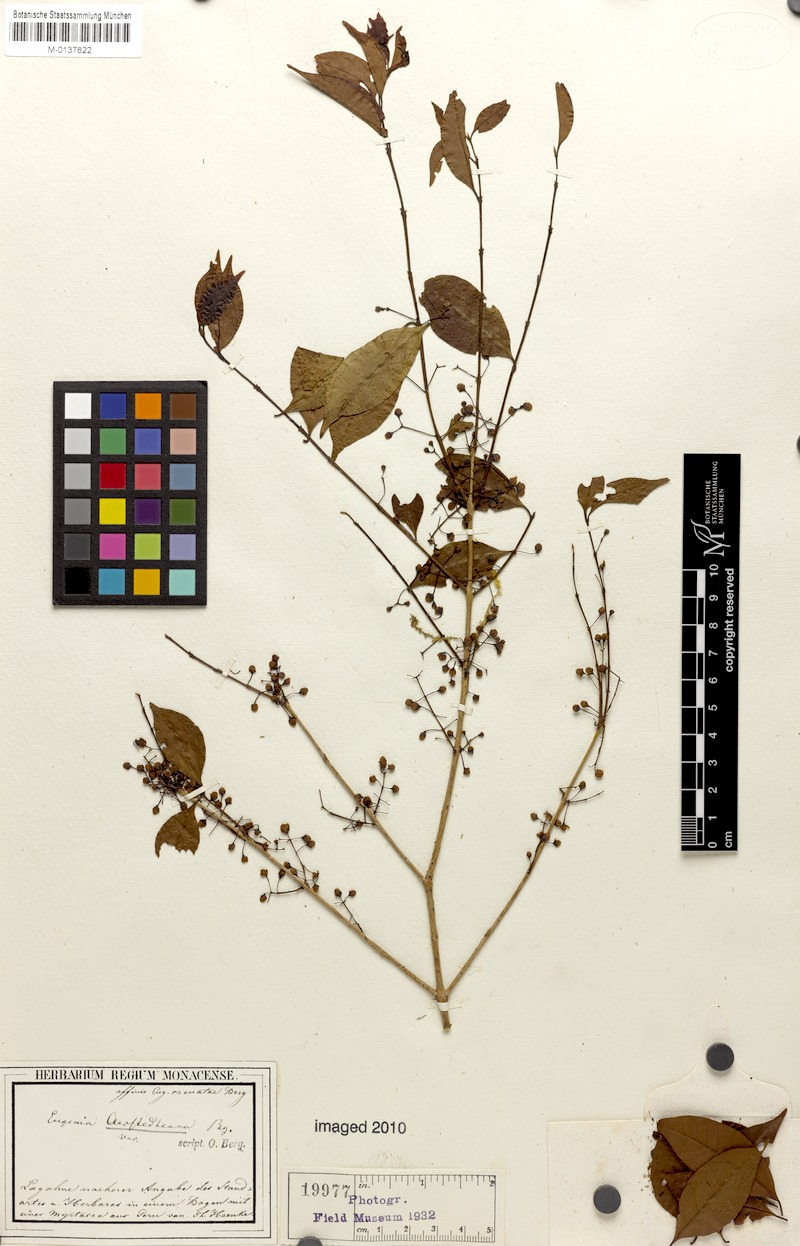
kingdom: Plantae
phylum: Tracheophyta
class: Magnoliopsida
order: Myrtales
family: Myrtaceae
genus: Eugenia
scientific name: Eugenia oerstediana
